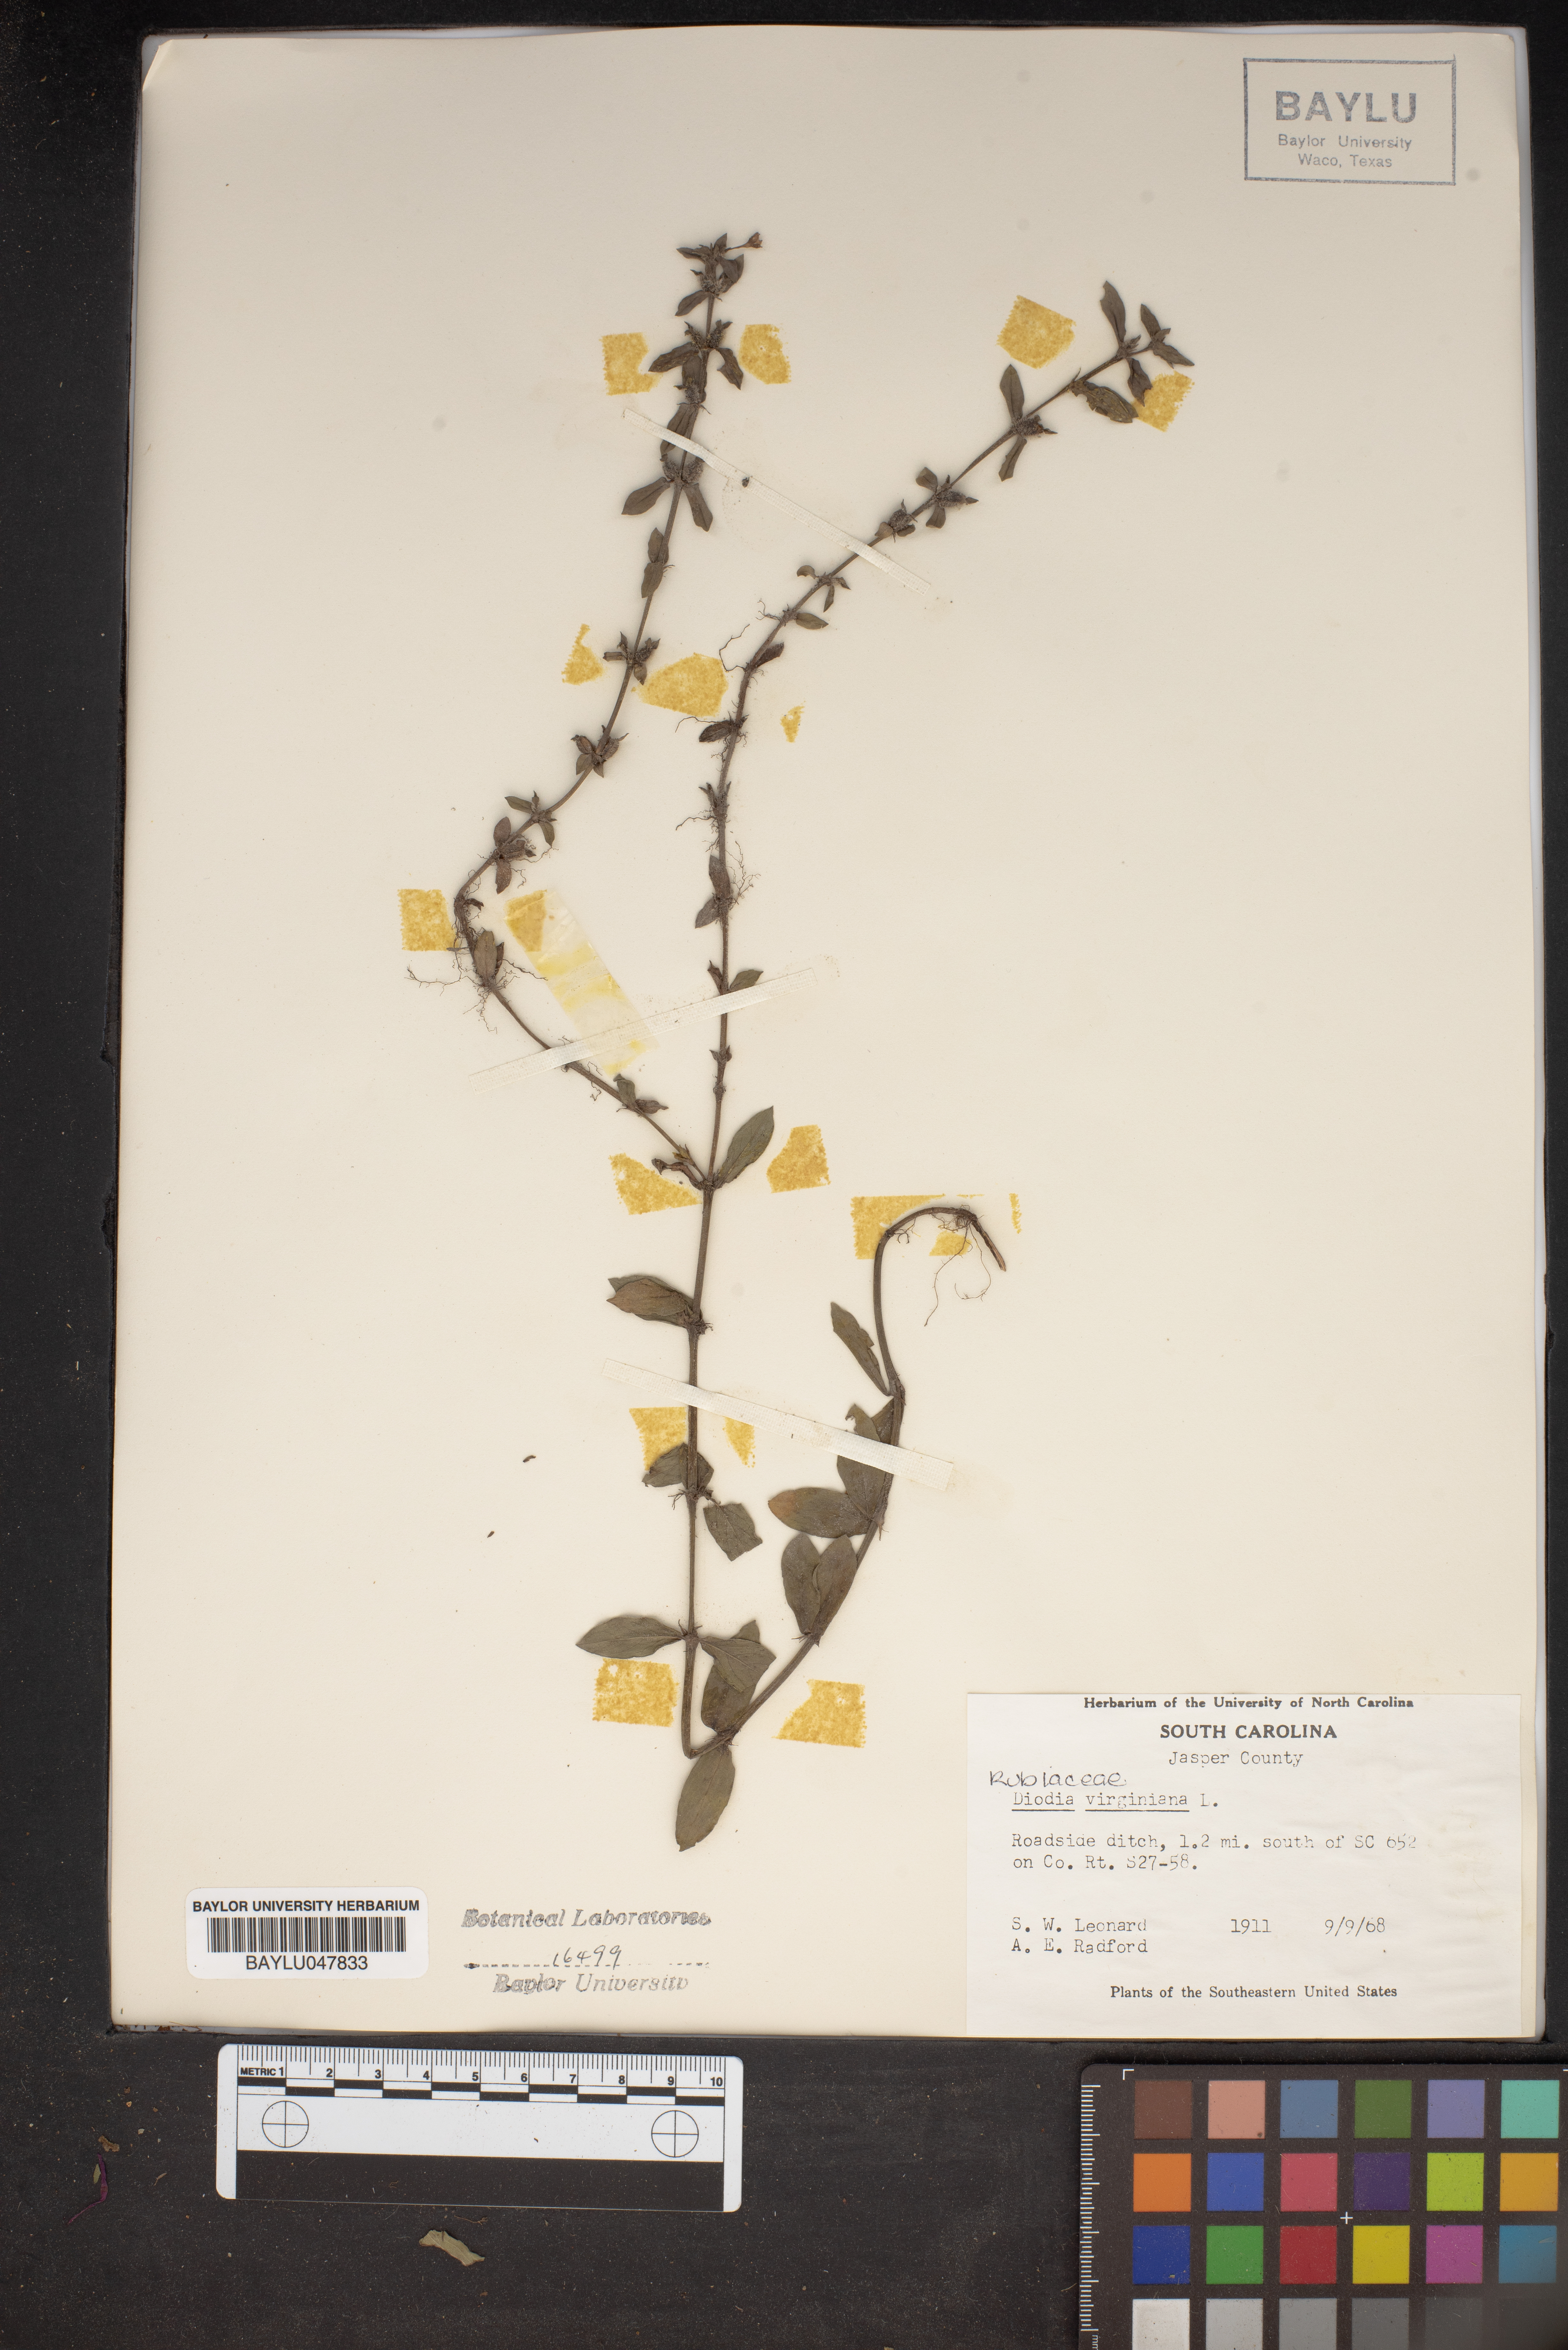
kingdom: Plantae
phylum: Tracheophyta
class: Magnoliopsida
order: Gentianales
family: Rubiaceae
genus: Diodia
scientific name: Diodia virginiana
